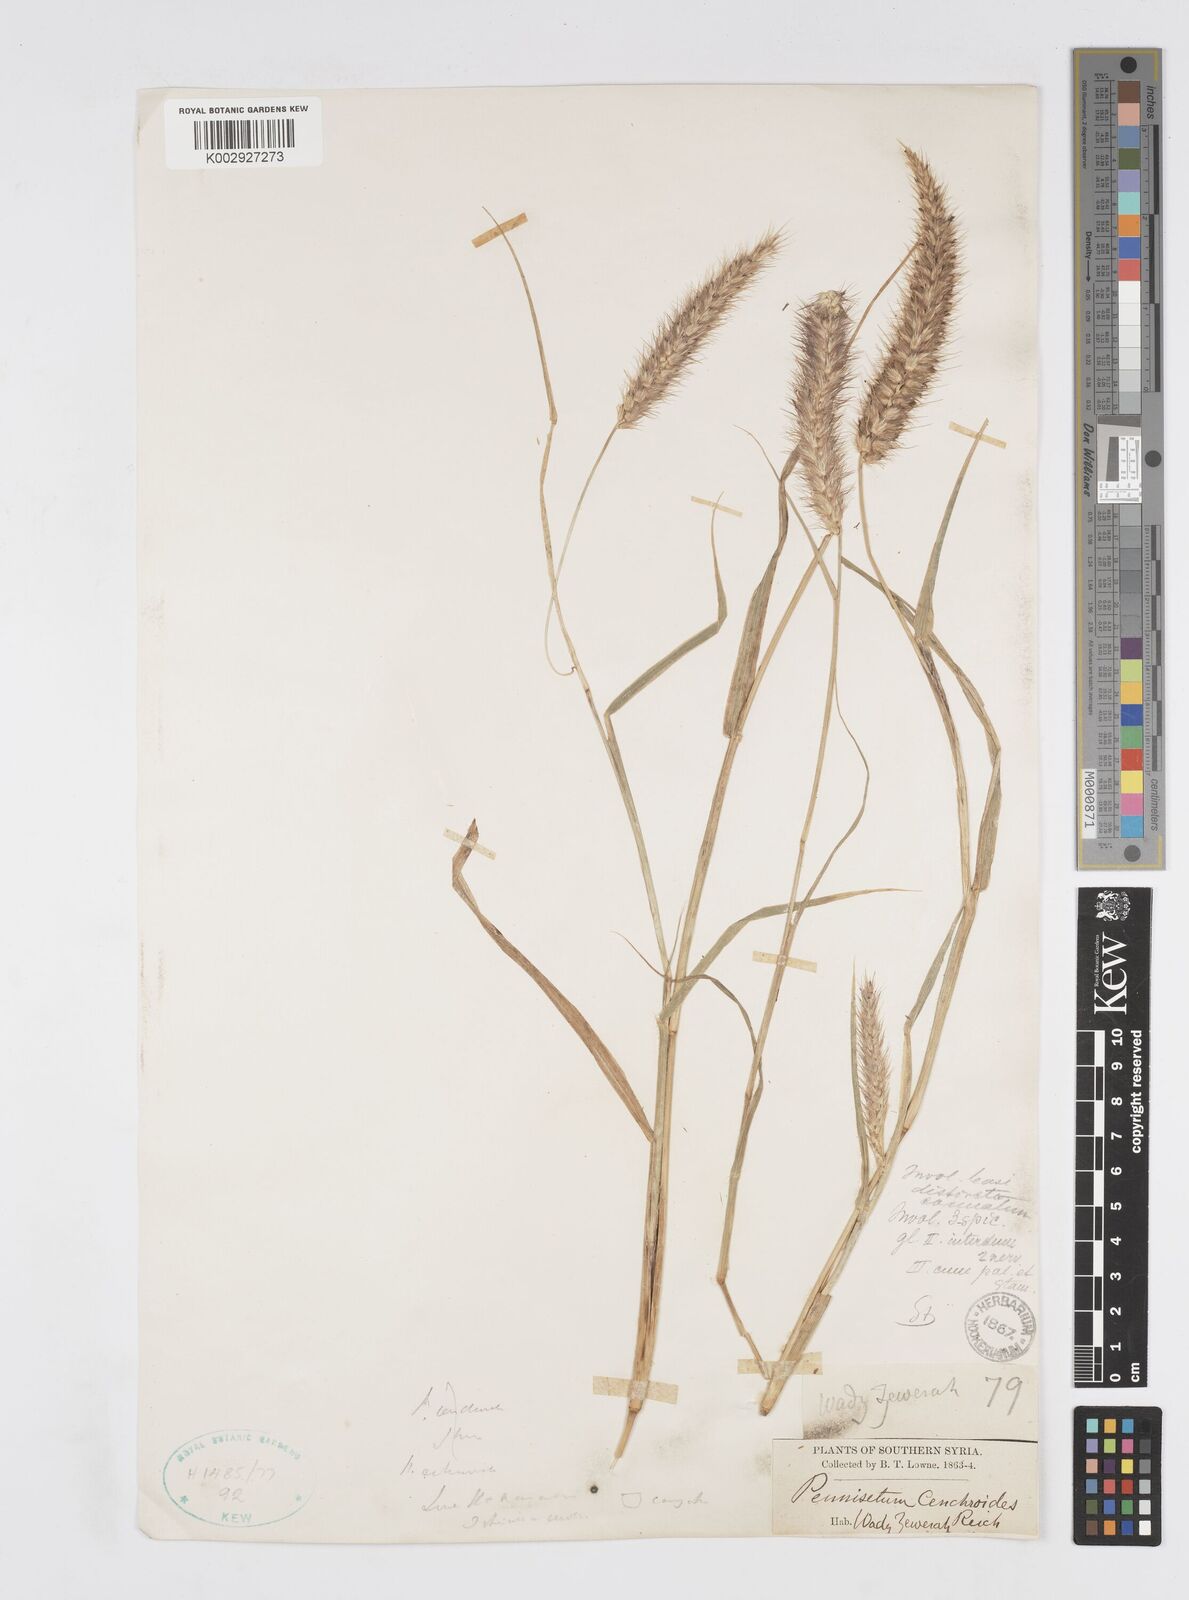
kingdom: Plantae
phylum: Tracheophyta
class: Liliopsida
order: Poales
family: Poaceae
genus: Cenchrus
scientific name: Cenchrus
